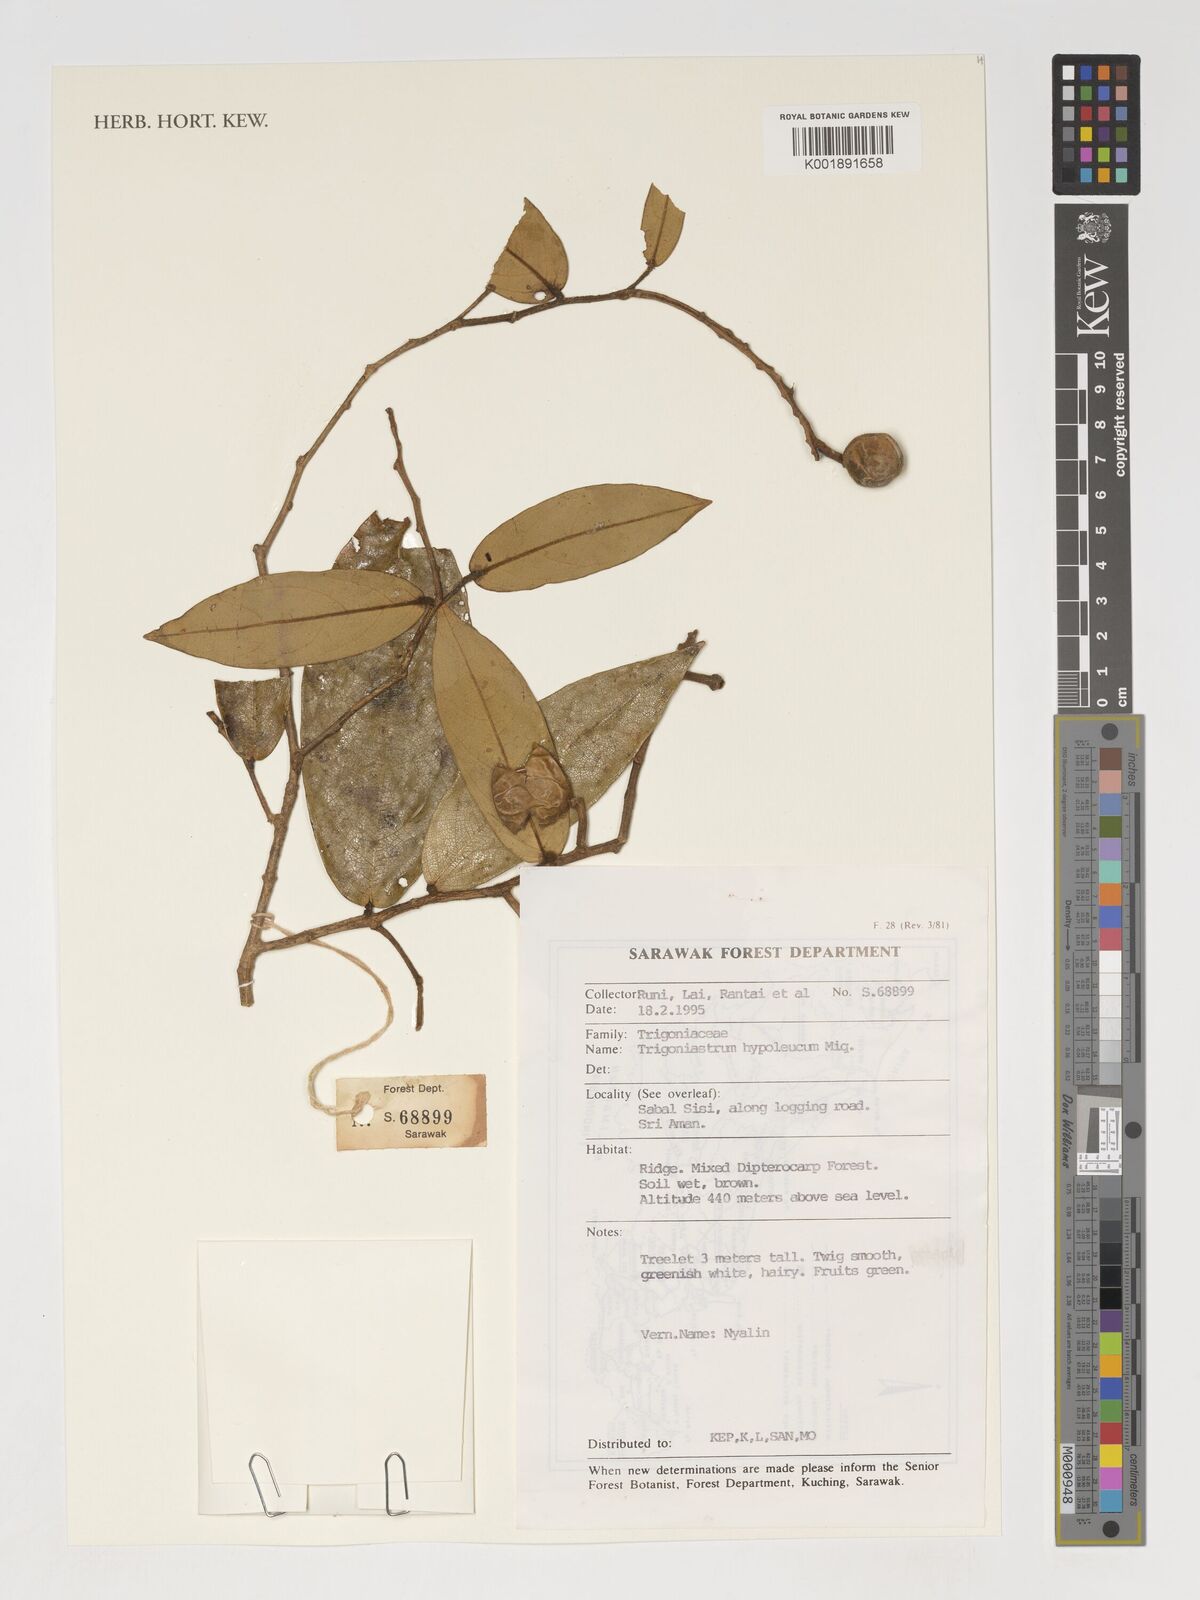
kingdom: Plantae
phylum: Tracheophyta
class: Magnoliopsida
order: Malpighiales
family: Trigoniaceae
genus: Trigoniastrum
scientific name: Trigoniastrum hypoleucum
